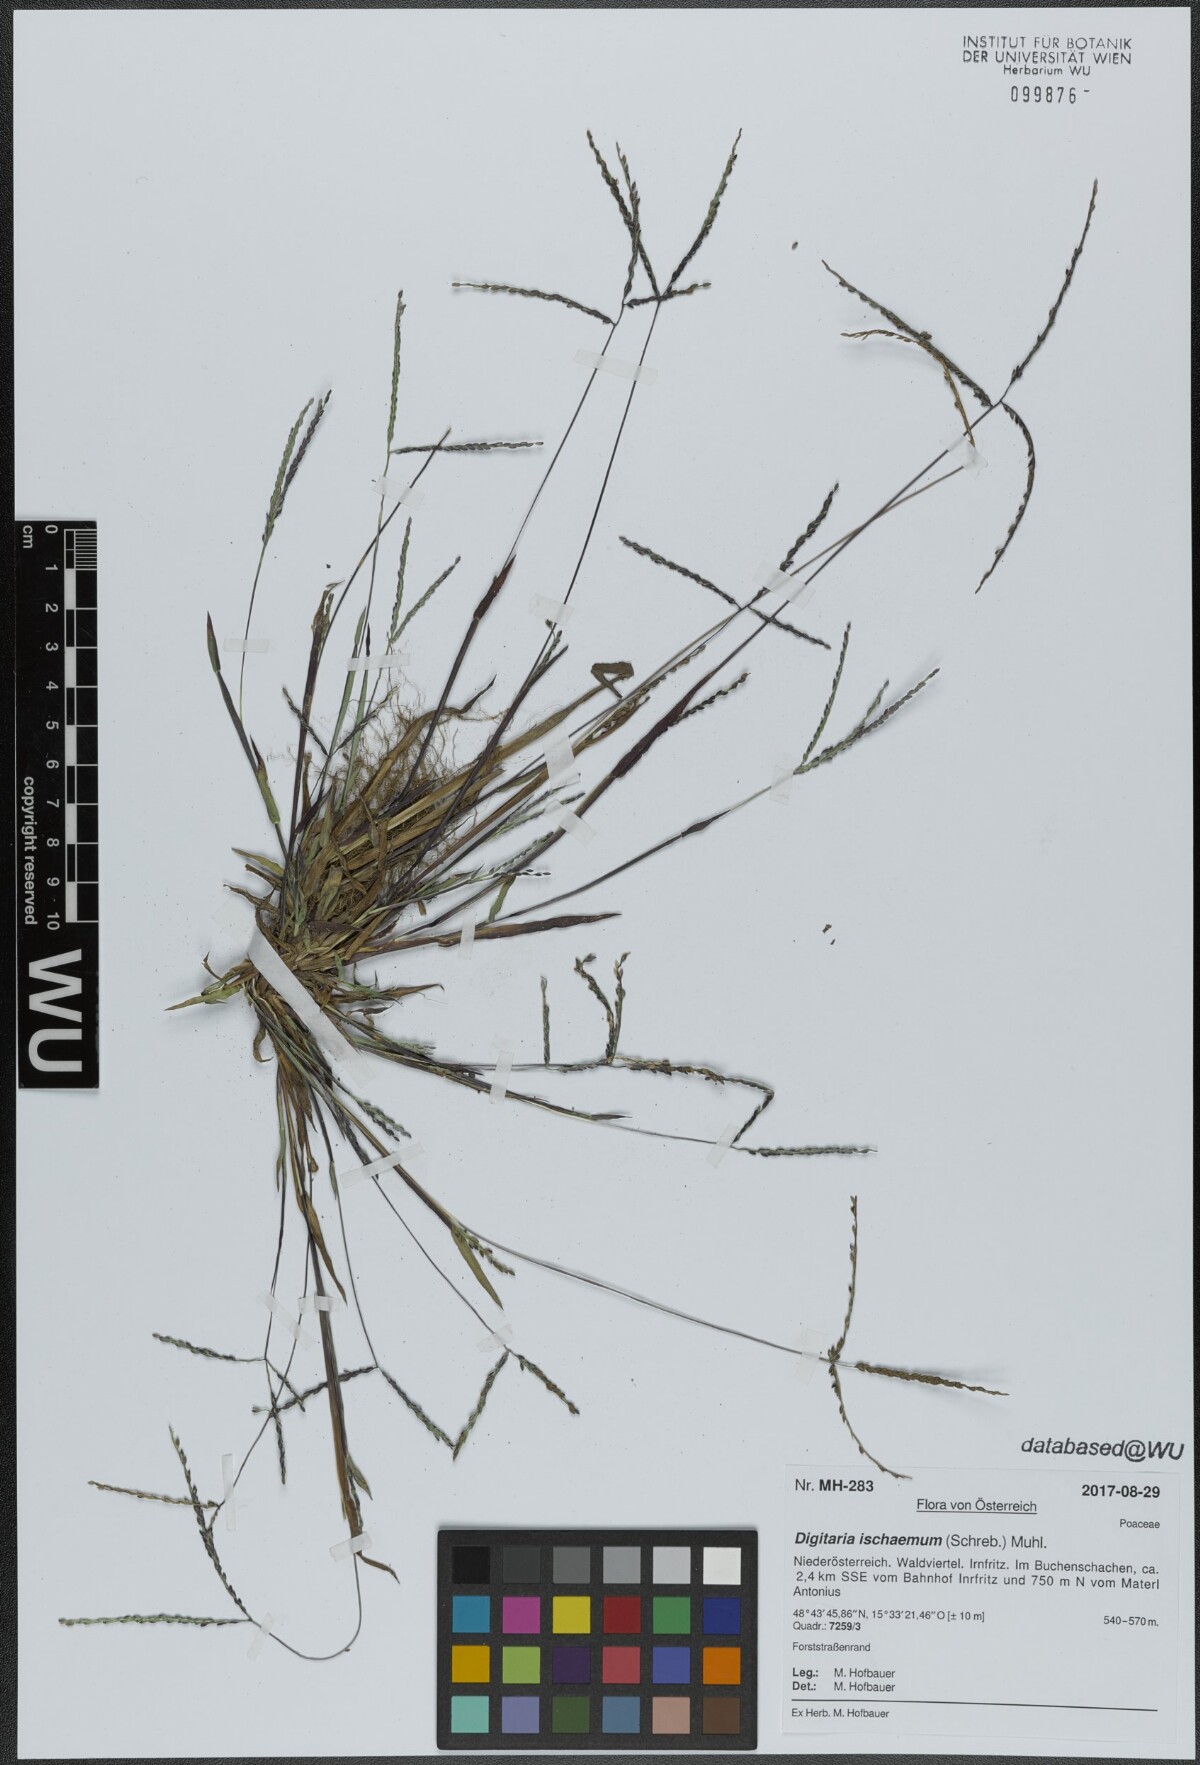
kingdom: Plantae
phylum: Tracheophyta
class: Liliopsida
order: Poales
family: Poaceae
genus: Digitaria
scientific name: Digitaria ischaemum
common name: Smooth crabgrass
